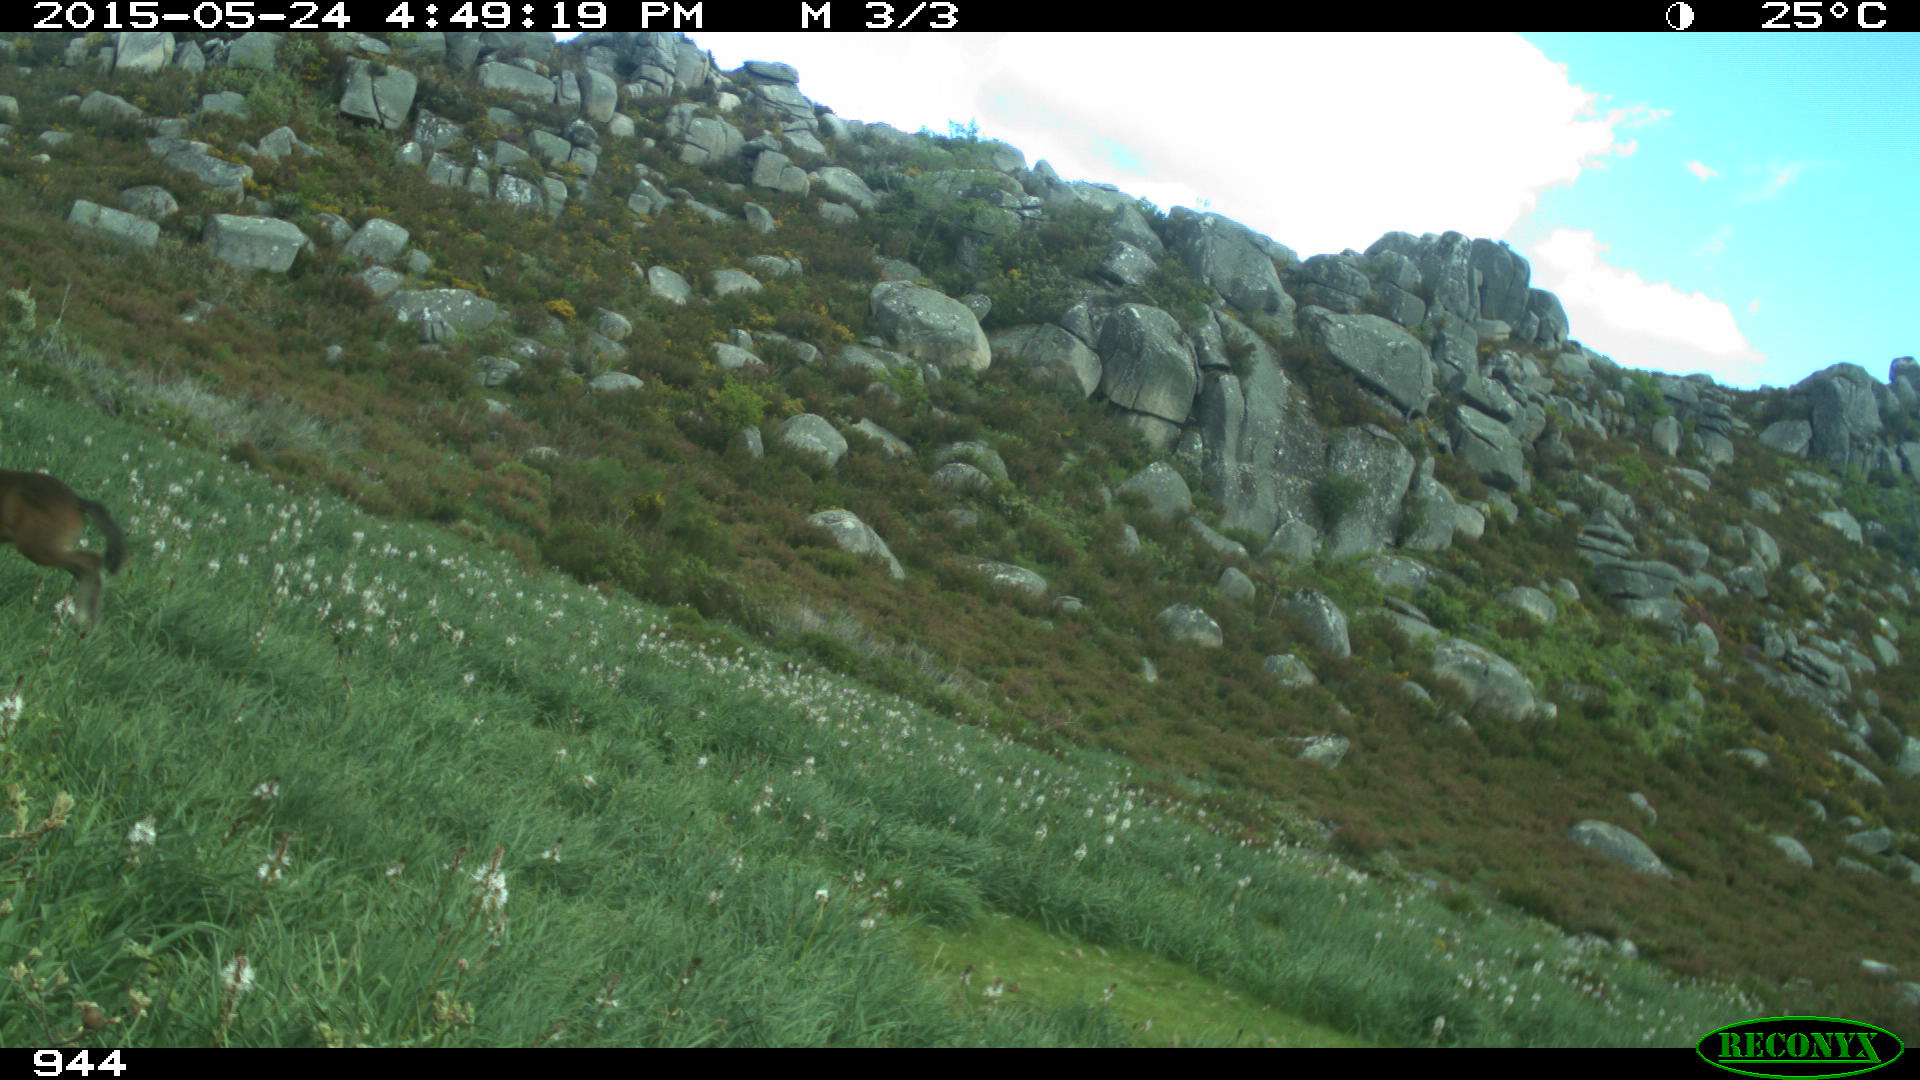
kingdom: Animalia
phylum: Chordata
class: Mammalia
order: Perissodactyla
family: Equidae
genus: Equus
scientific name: Equus caballus
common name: Horse
